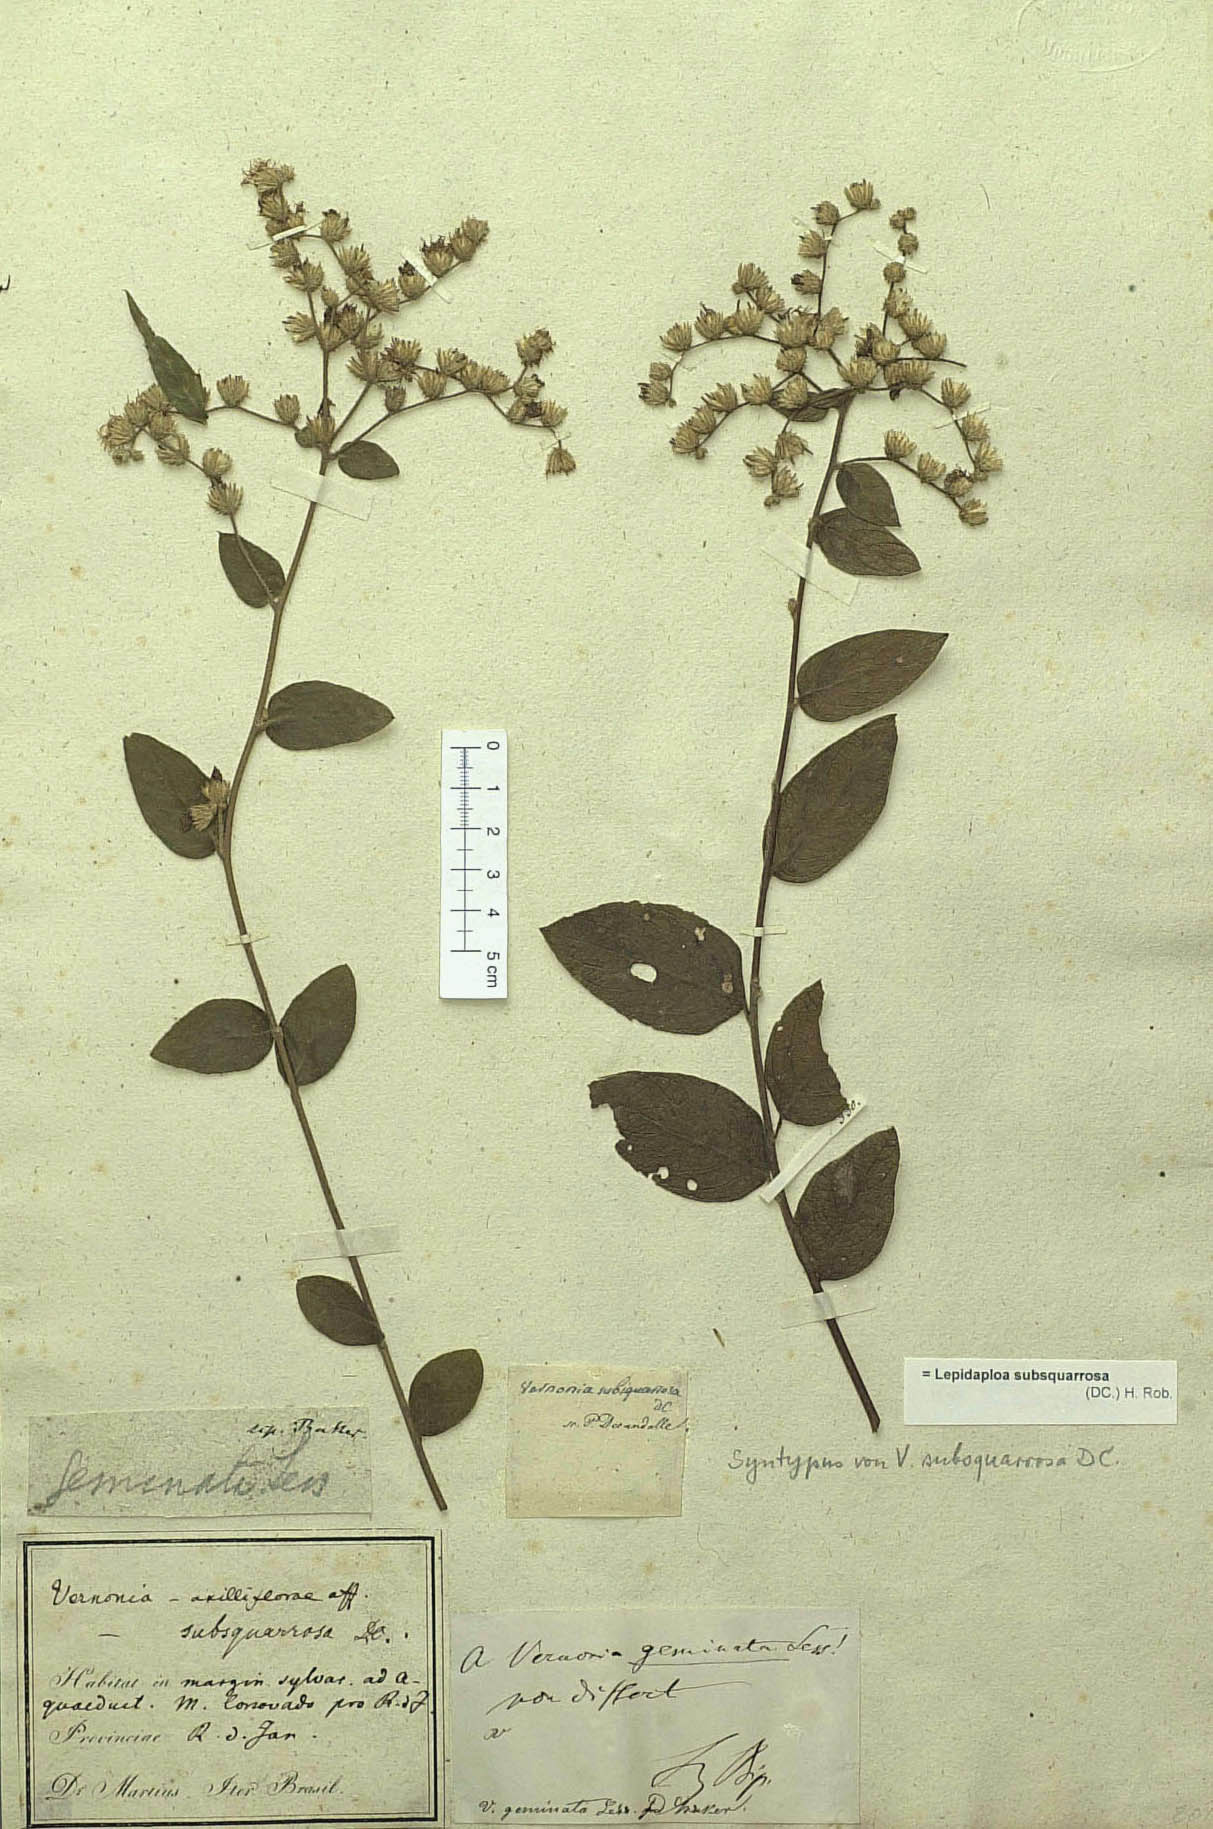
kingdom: Plantae
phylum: Tracheophyta
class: Magnoliopsida
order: Asterales
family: Asteraceae
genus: Lepidaploa
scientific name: Lepidaploa subsquarrosa
